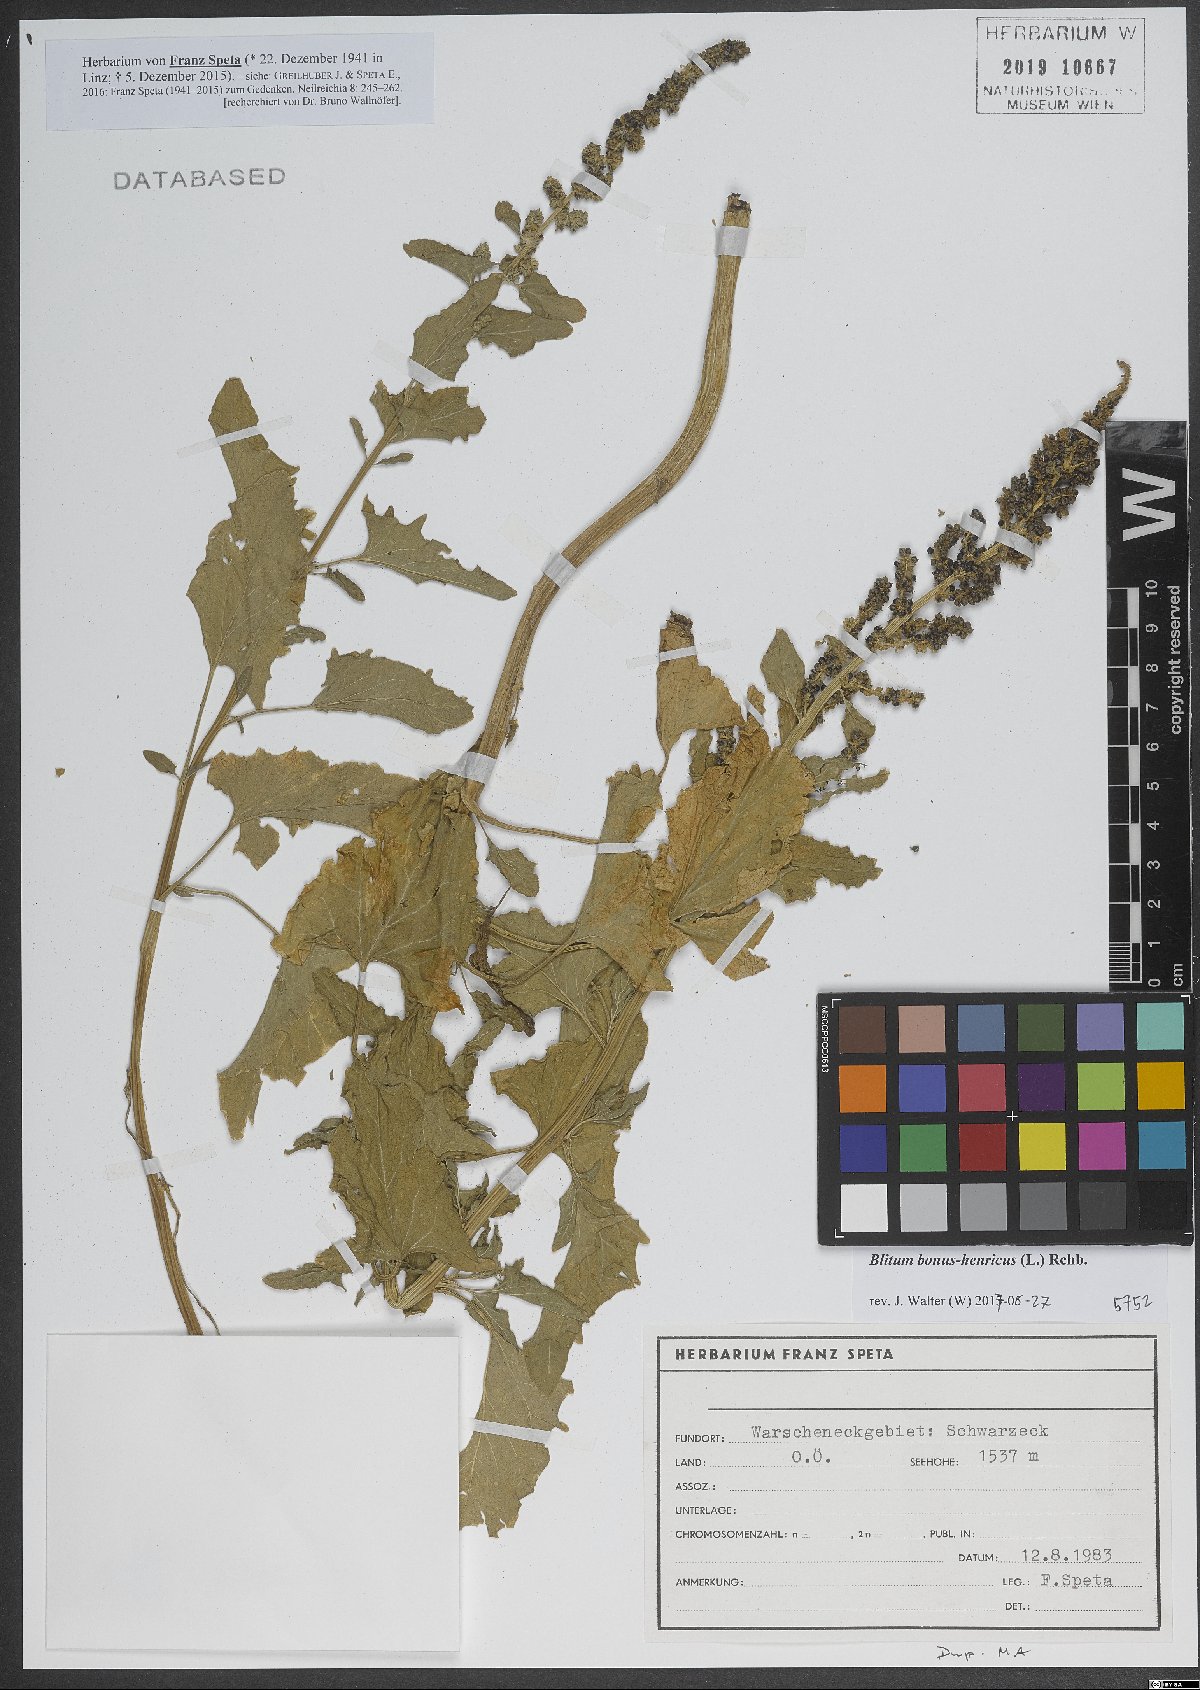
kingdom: Plantae
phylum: Tracheophyta
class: Magnoliopsida
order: Caryophyllales
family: Amaranthaceae
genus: Blitum
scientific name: Blitum bonus-henricus
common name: Good king henry
